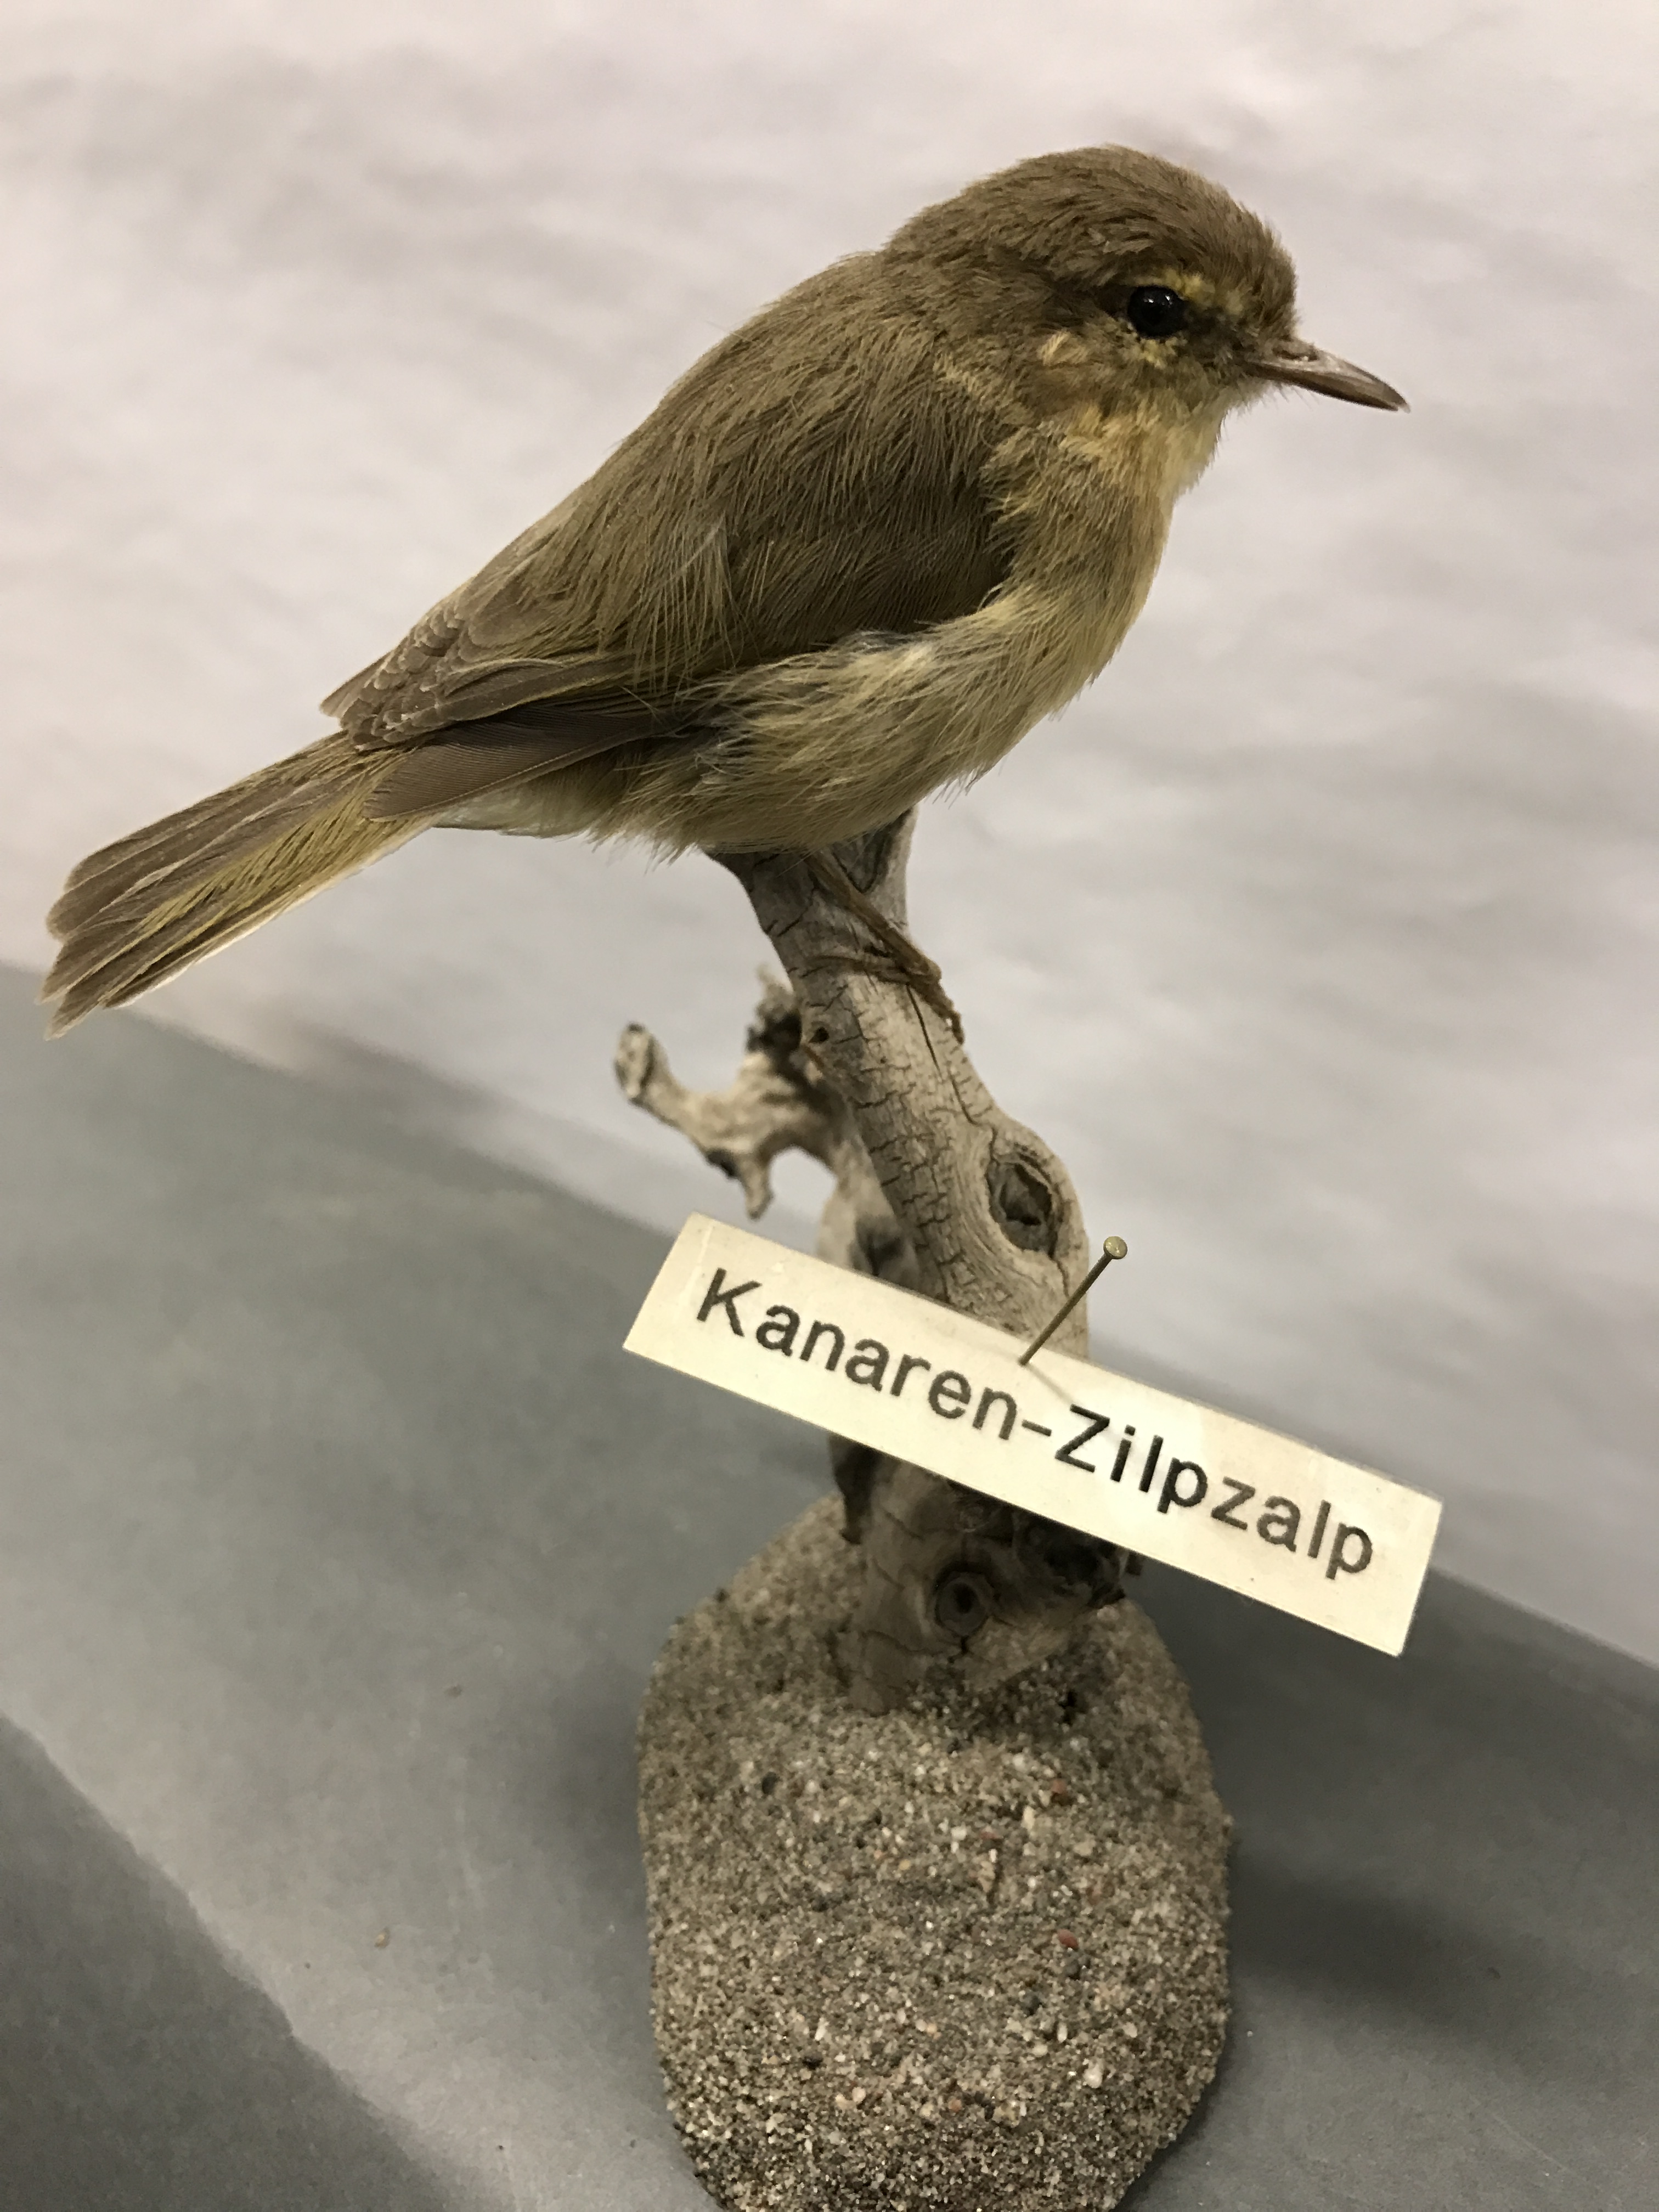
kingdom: Animalia
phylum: Chordata
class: Aves
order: Passeriformes
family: Phylloscopidae
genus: Phylloscopus
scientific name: Phylloscopus collybita
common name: Common chiffchaff
